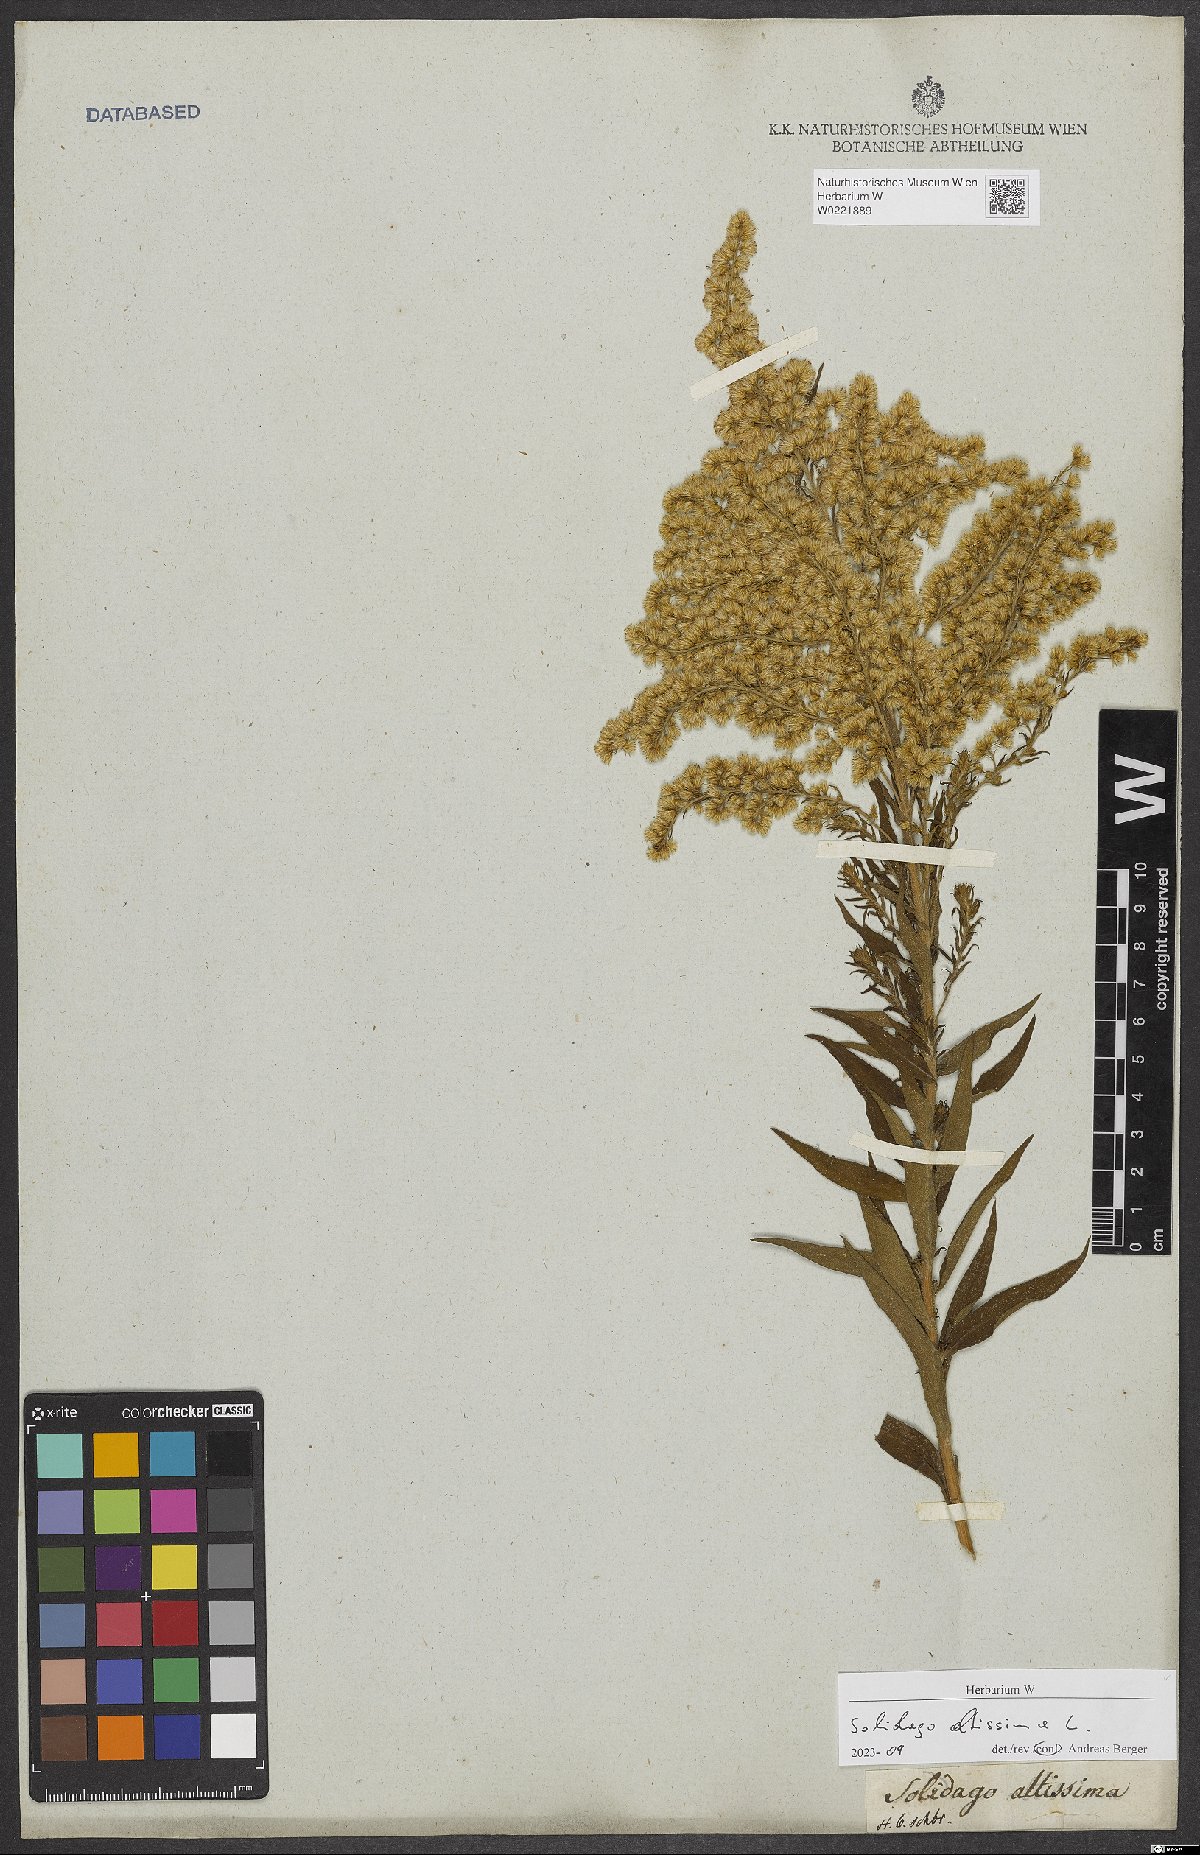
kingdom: Plantae
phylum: Tracheophyta
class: Magnoliopsida
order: Asterales
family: Asteraceae
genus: Solidago
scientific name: Solidago altissima
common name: Late goldenrod
